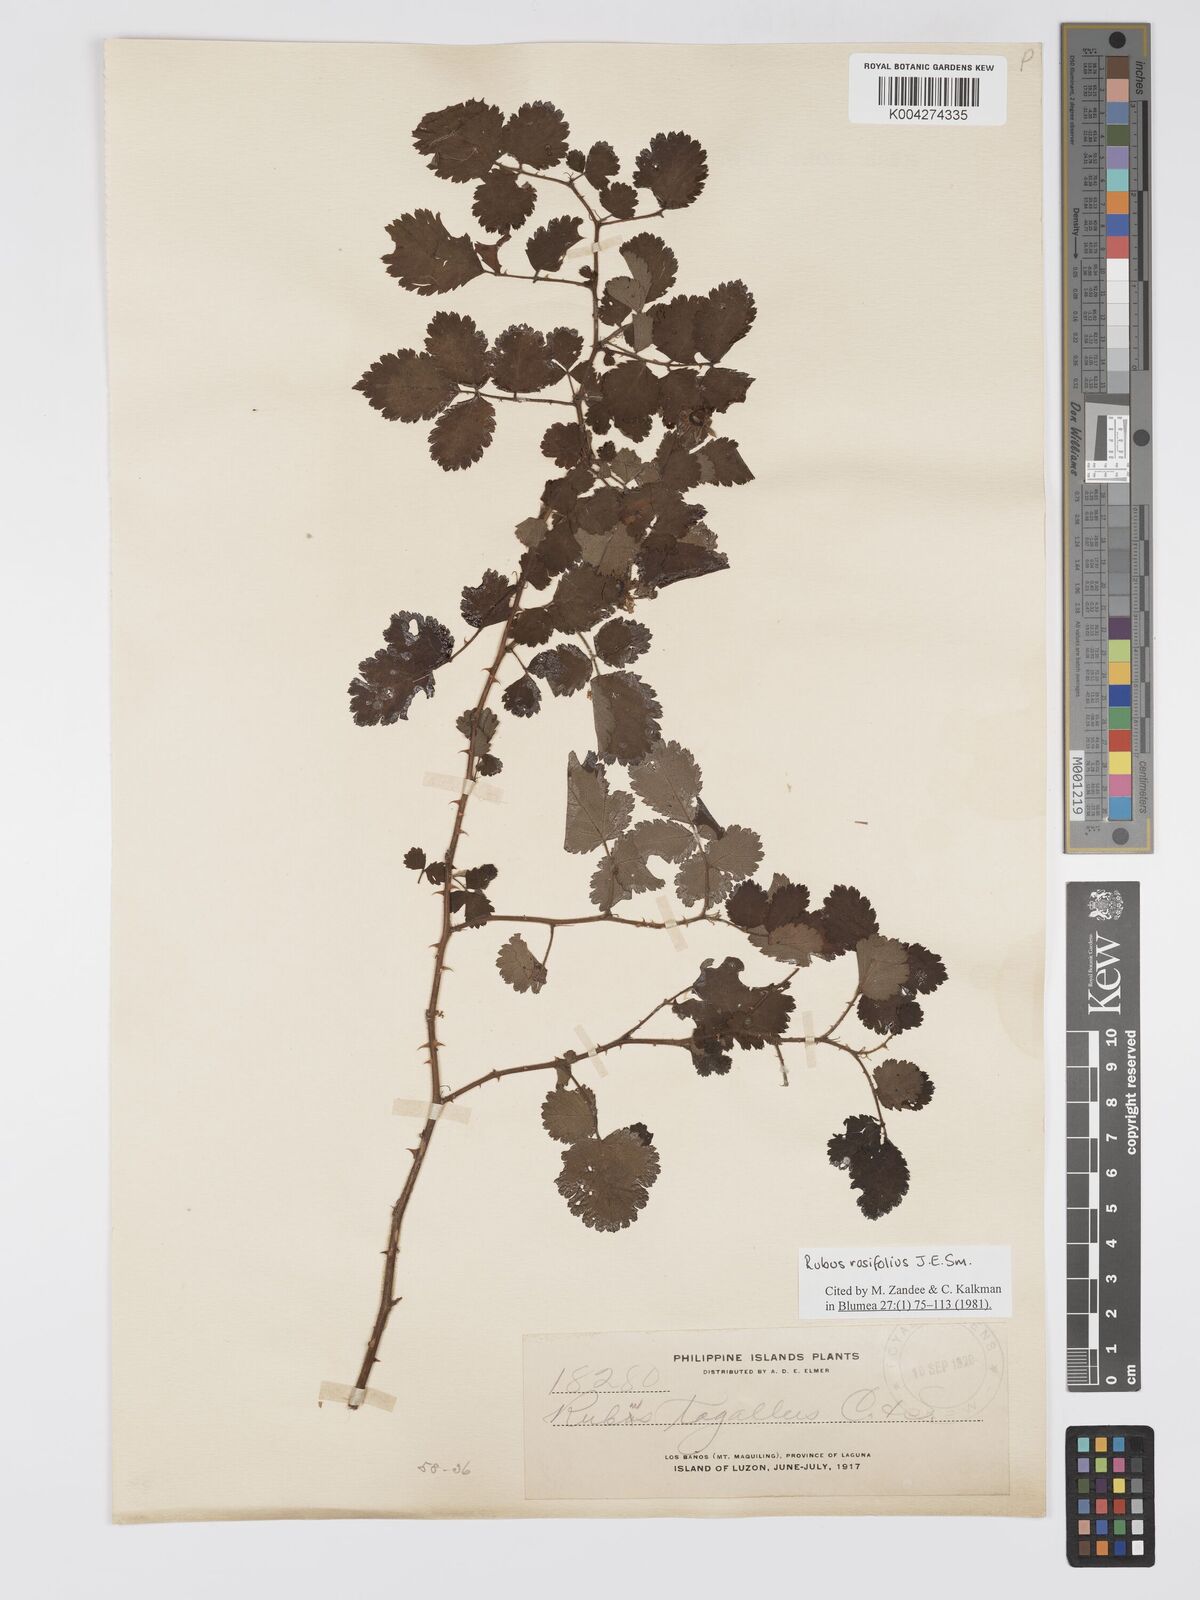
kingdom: Plantae
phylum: Tracheophyta
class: Magnoliopsida
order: Rosales
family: Rosaceae
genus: Rubus
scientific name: Rubus
